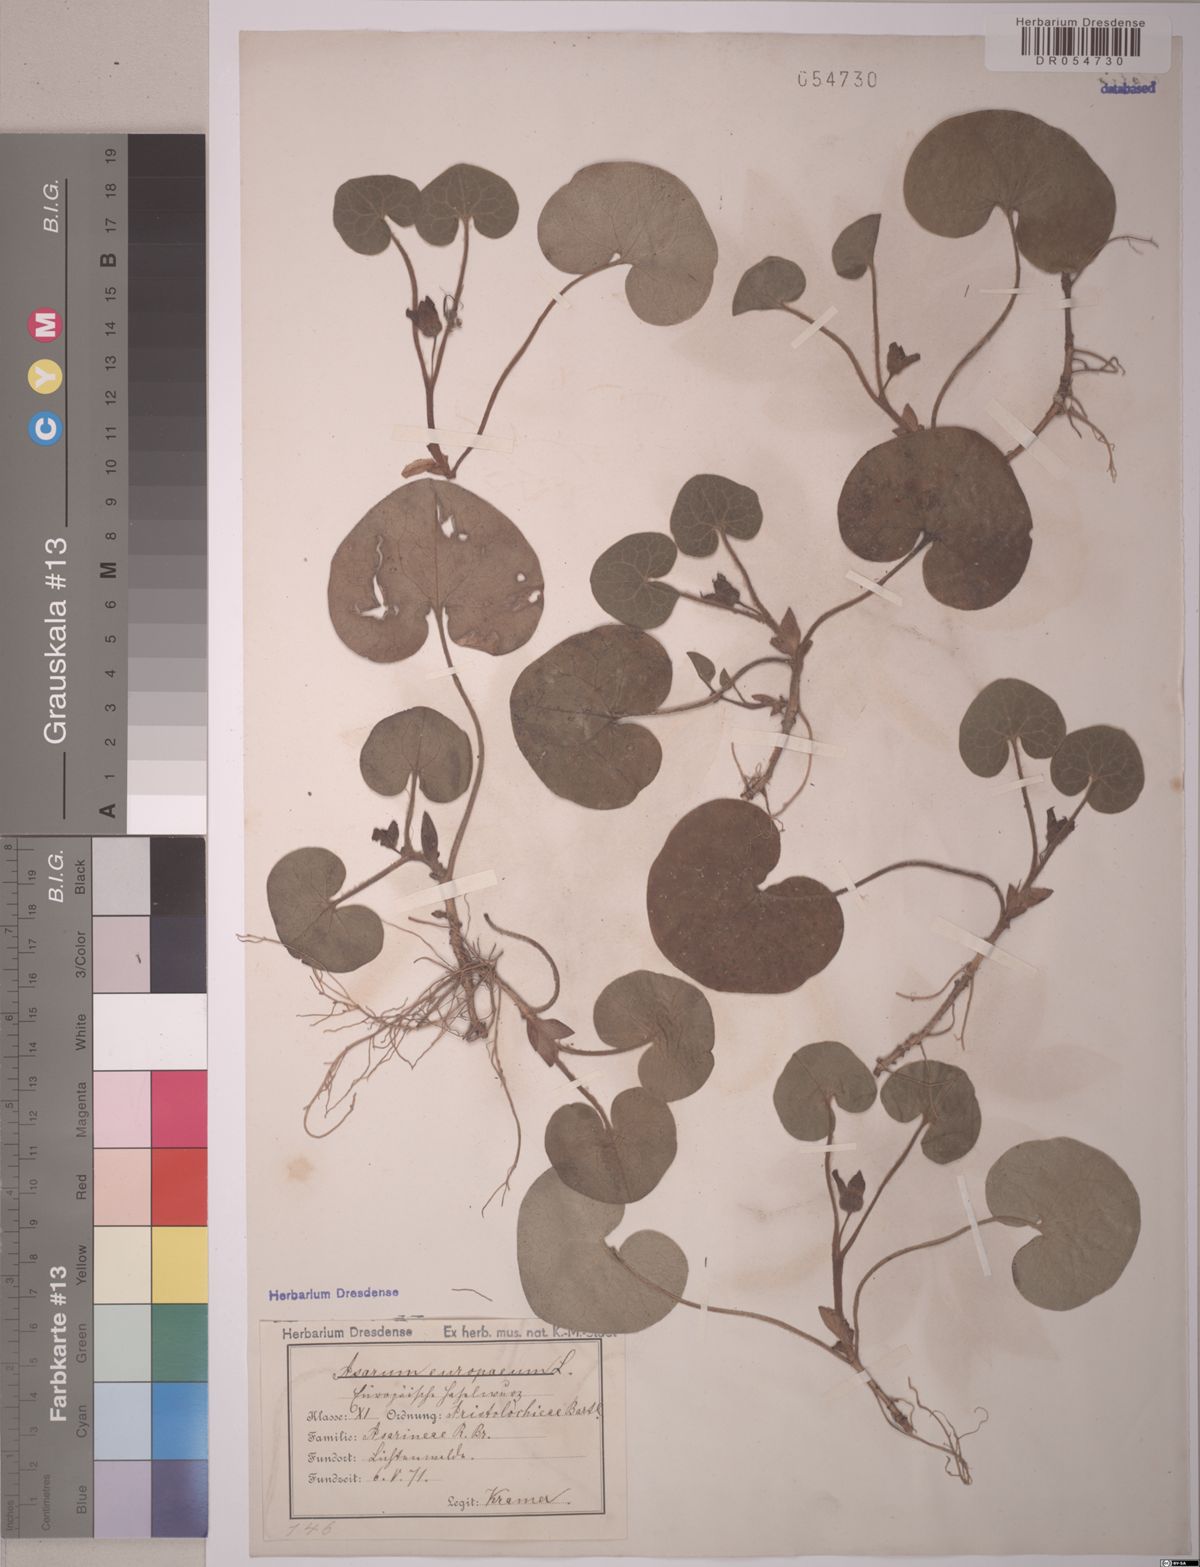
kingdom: Plantae
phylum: Tracheophyta
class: Magnoliopsida
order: Piperales
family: Aristolochiaceae
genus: Asarum
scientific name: Asarum europaeum
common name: Asarabacca
